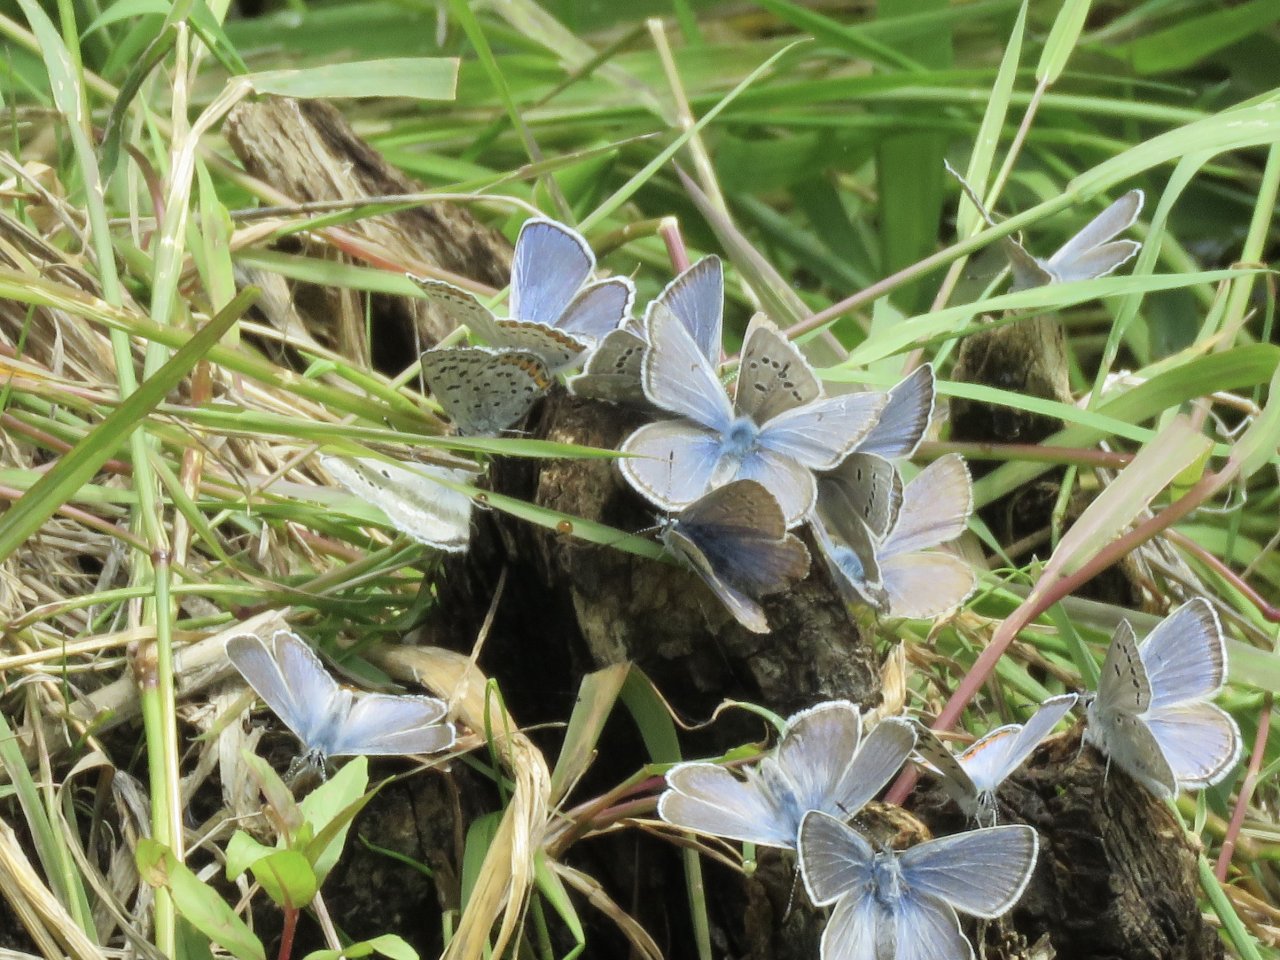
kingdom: Animalia
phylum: Arthropoda
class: Insecta
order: Lepidoptera
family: Lycaenidae
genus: Lycaeides
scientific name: Lycaeides melissa
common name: Melissa Blue
